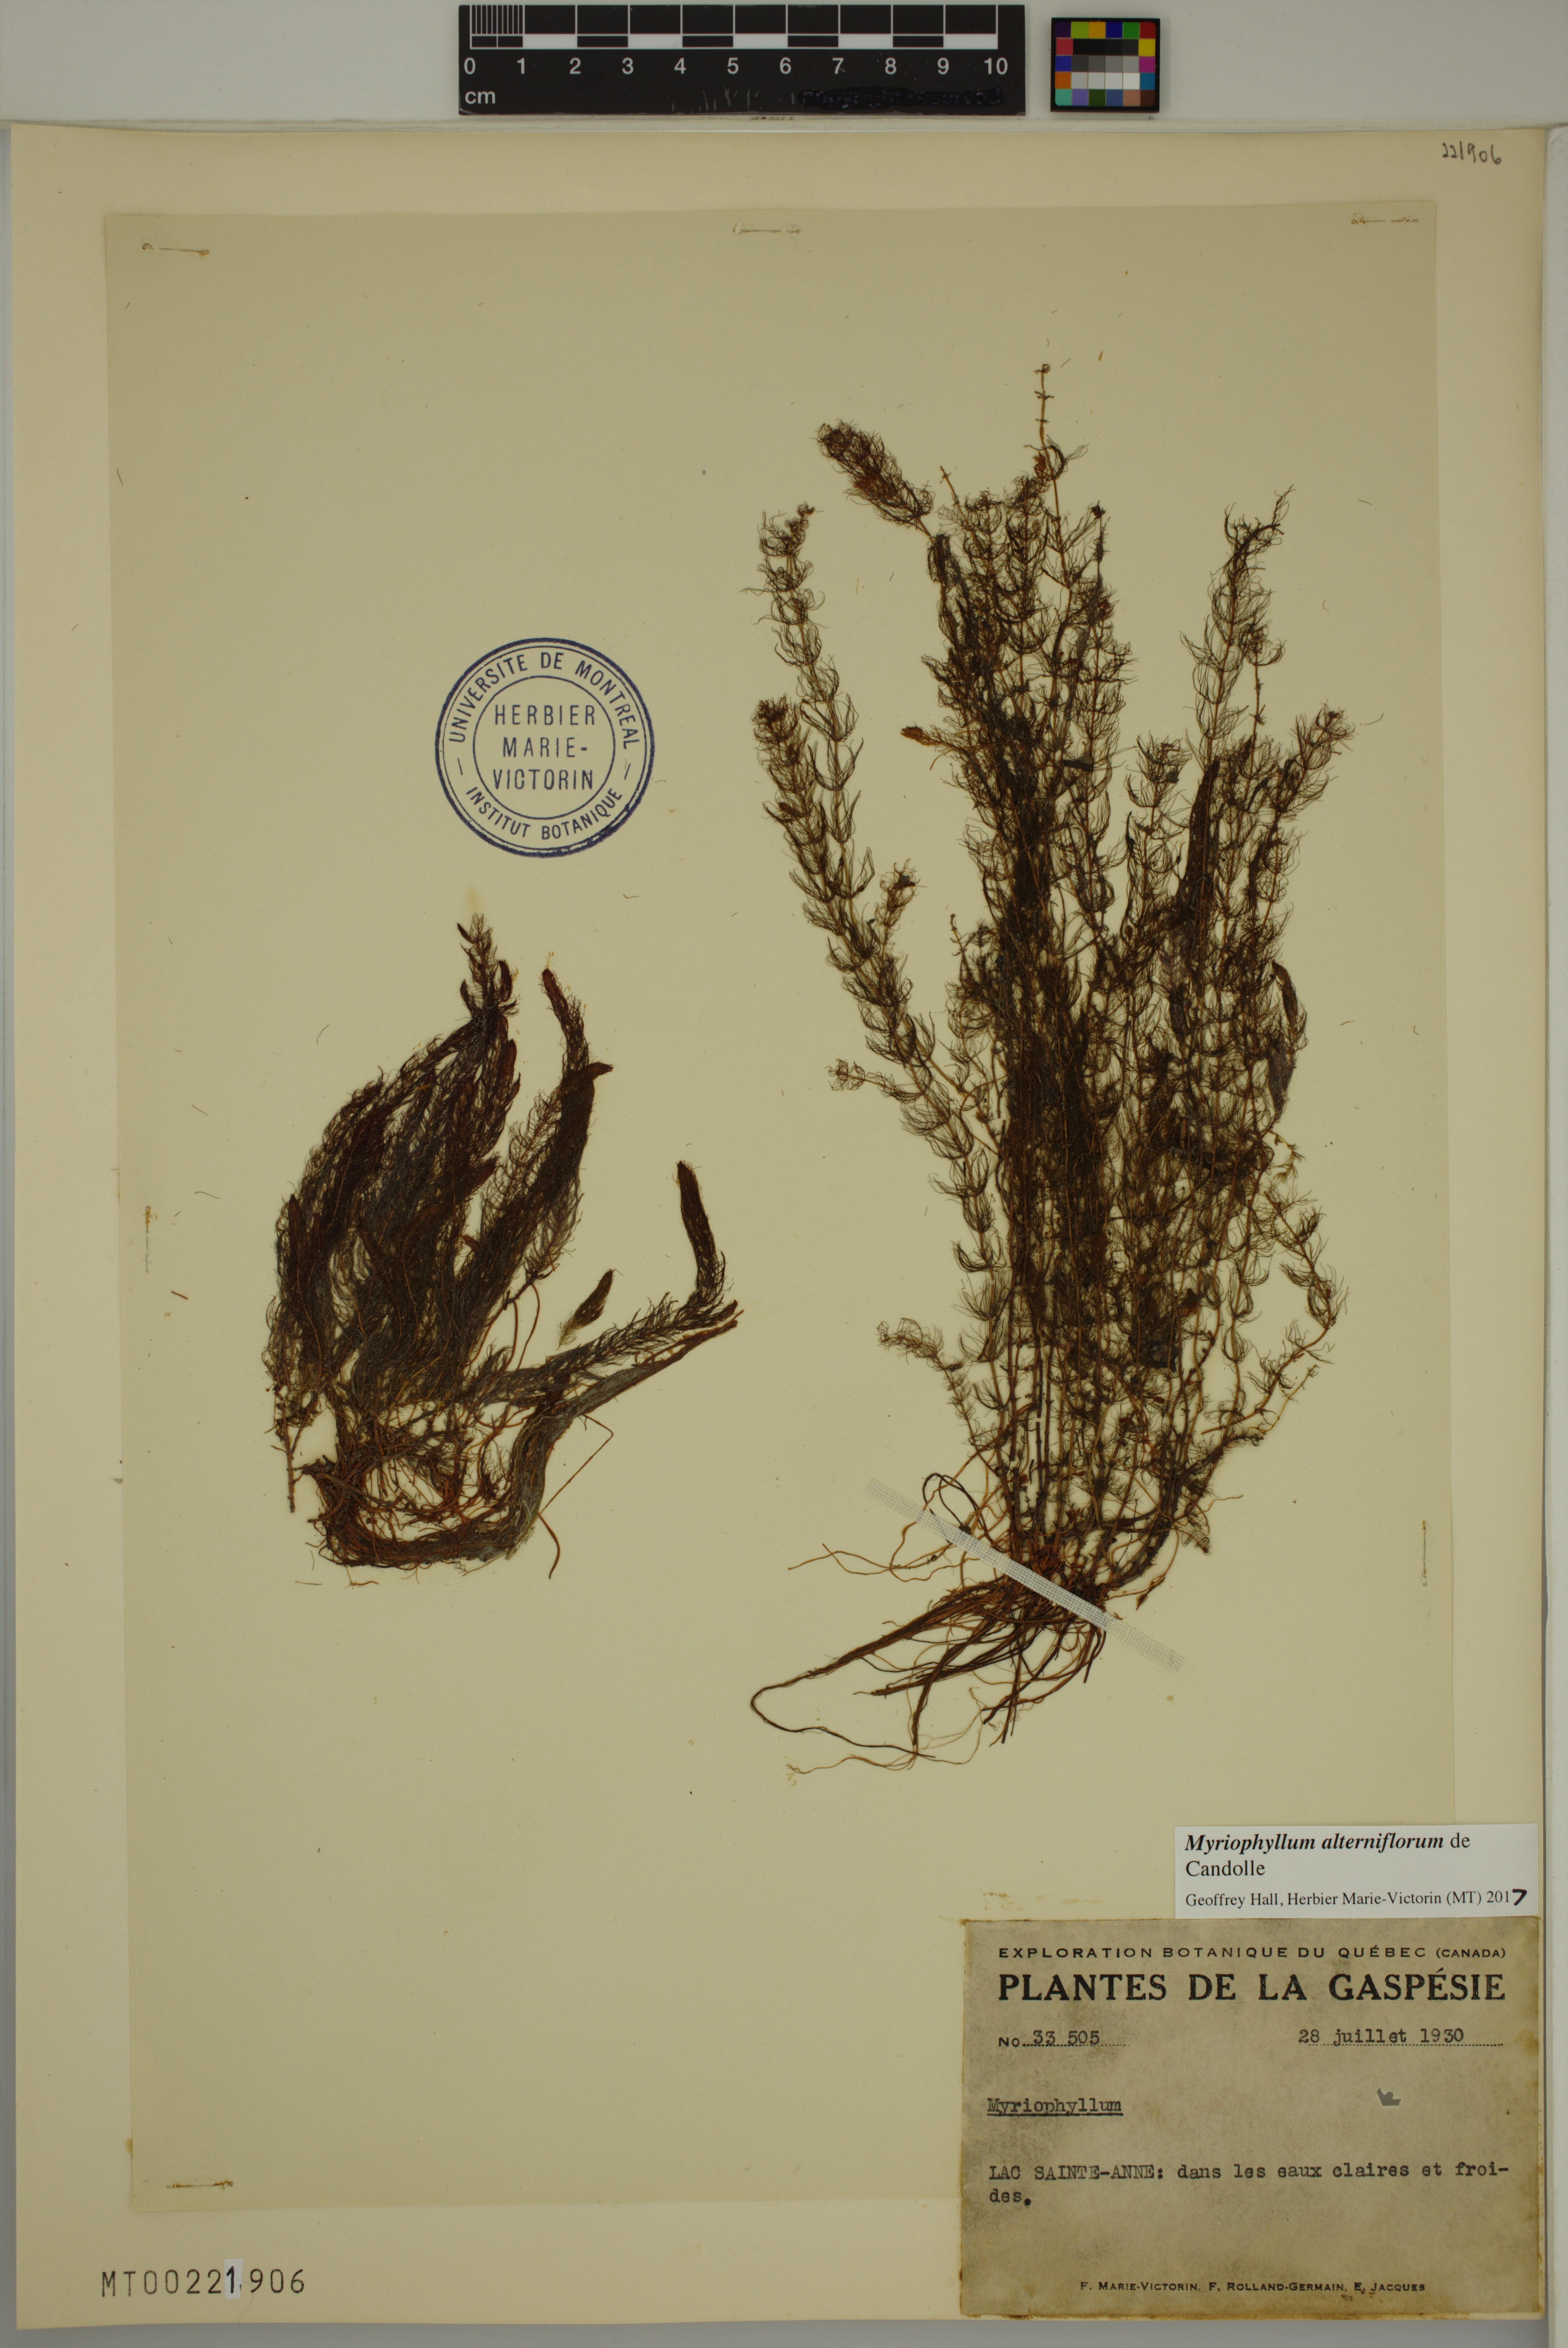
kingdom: Plantae
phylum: Tracheophyta
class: Magnoliopsida
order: Saxifragales
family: Haloragaceae
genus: Myriophyllum
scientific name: Myriophyllum alterniflorum
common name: Alternate water-milfoil
